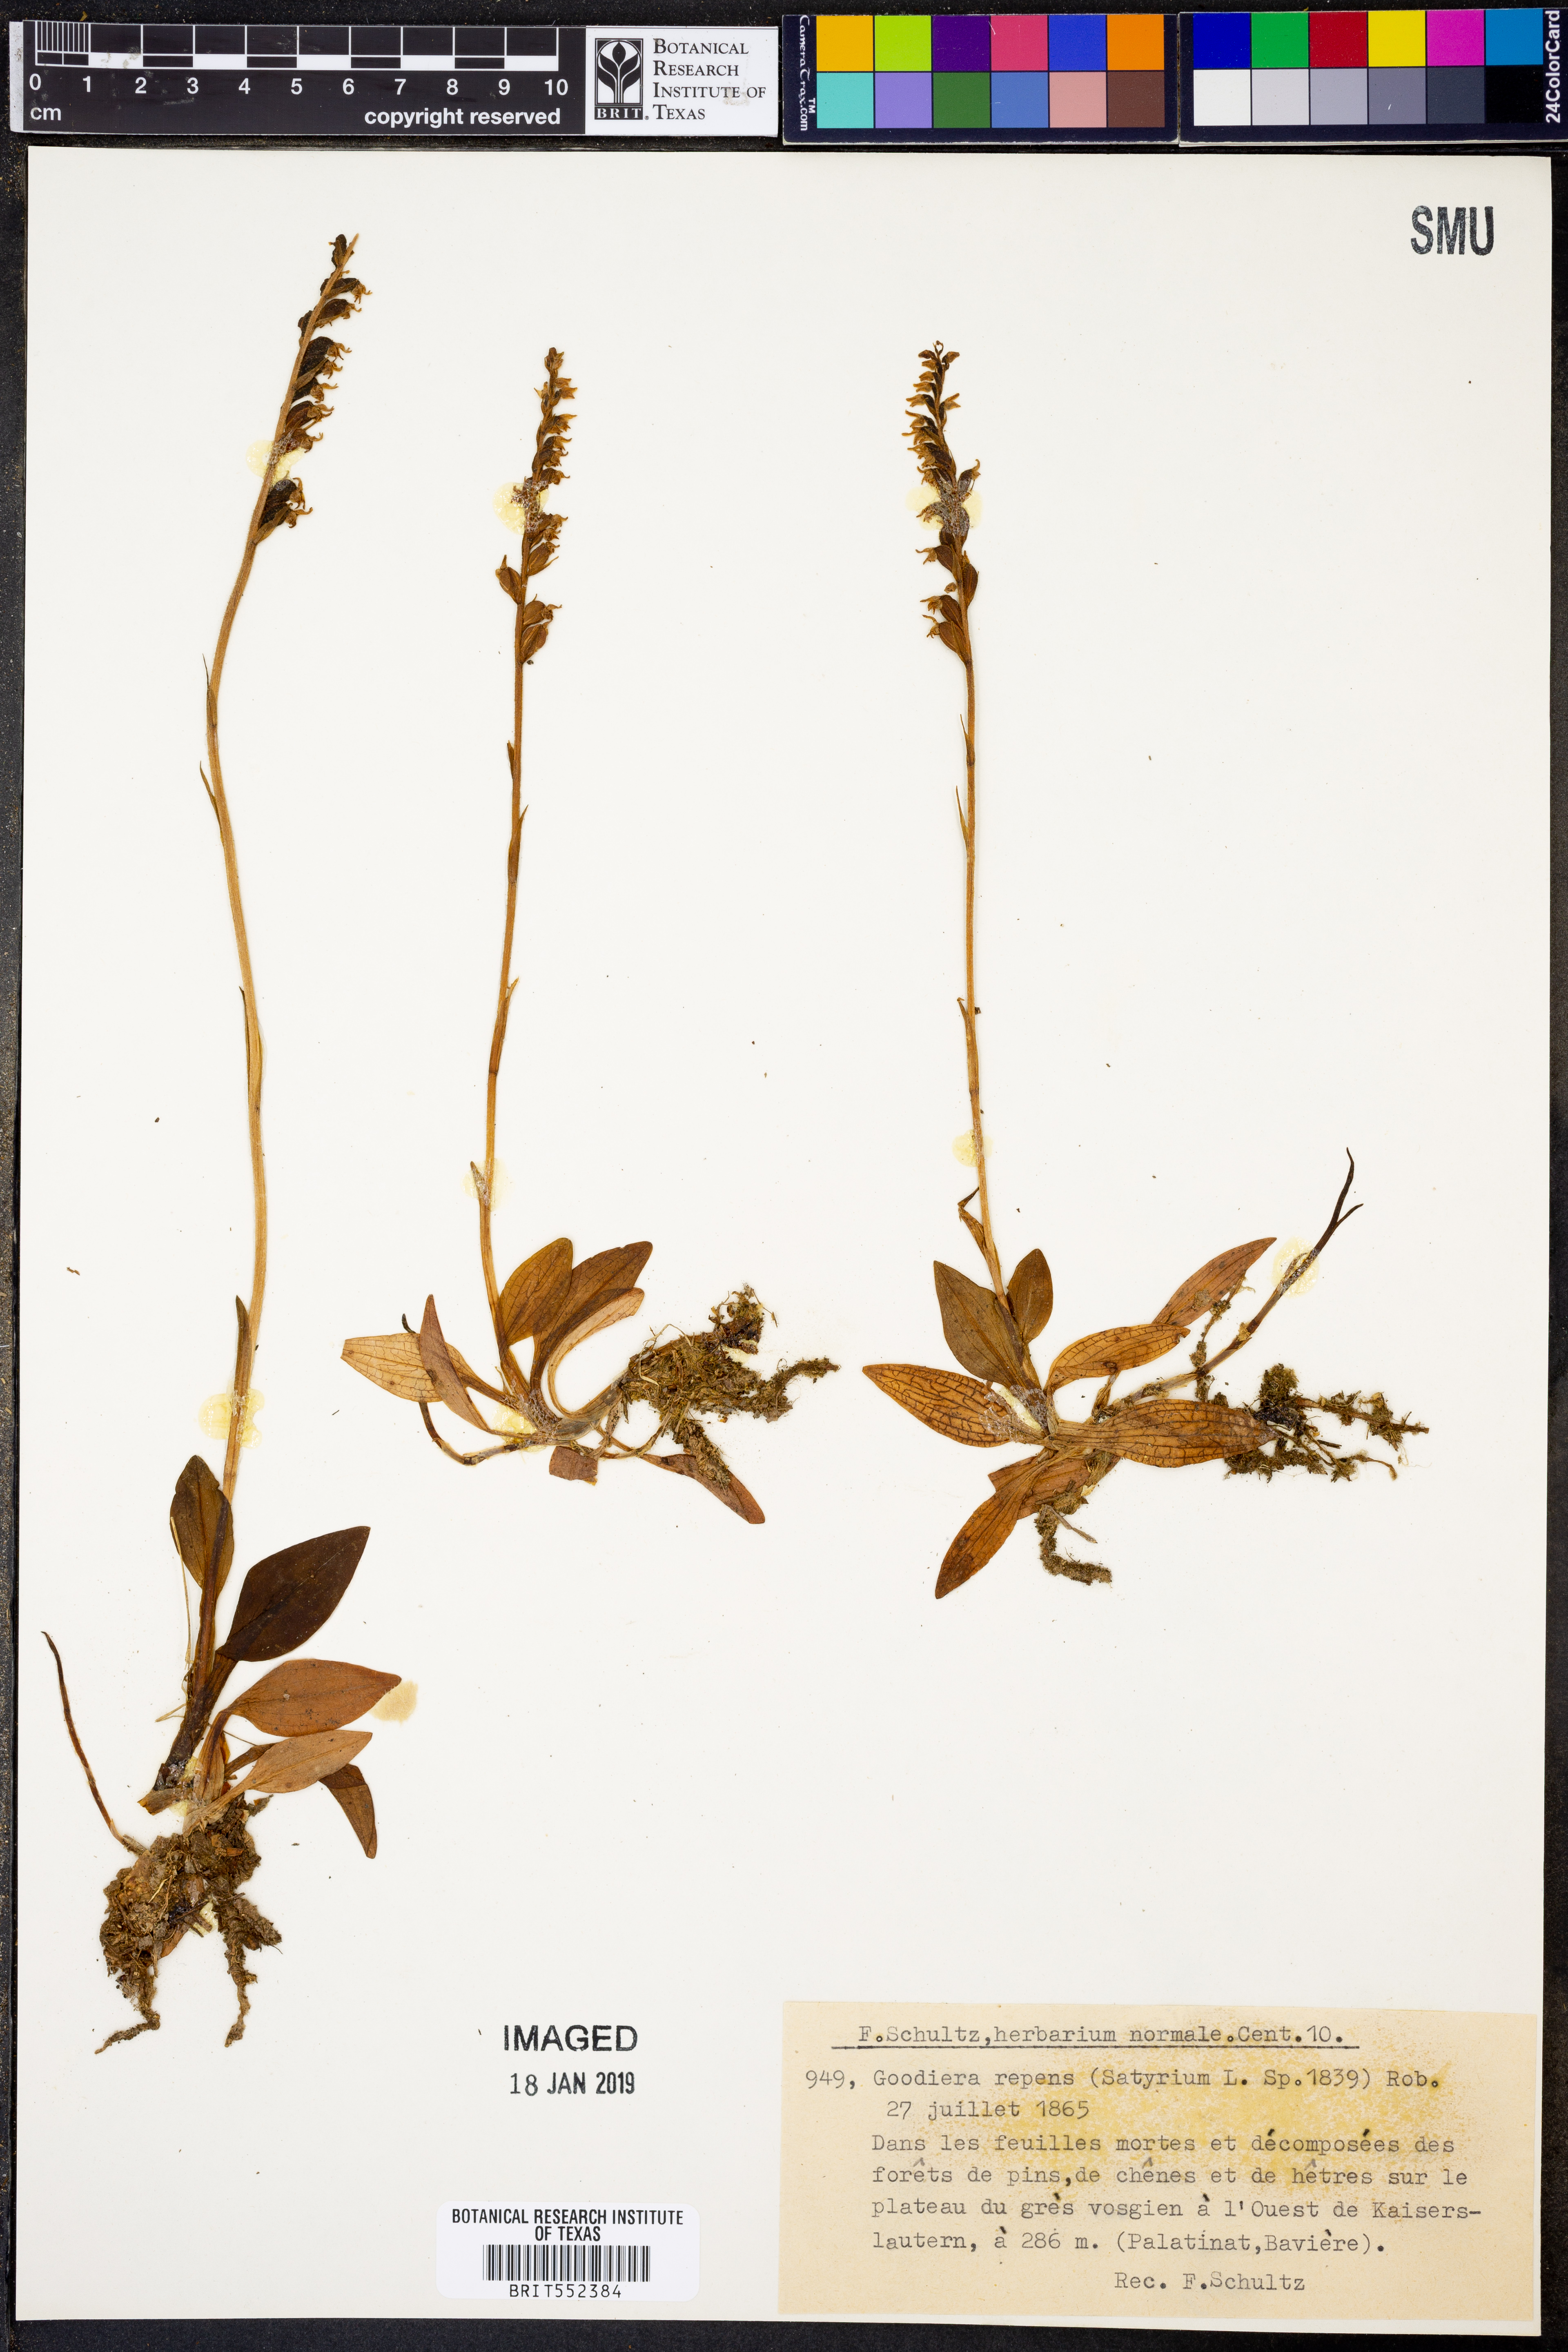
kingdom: Plantae
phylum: Tracheophyta
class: Liliopsida
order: Asparagales
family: Orchidaceae
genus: Goodyera
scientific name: Goodyera repens
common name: Creeping lady's-tresses
